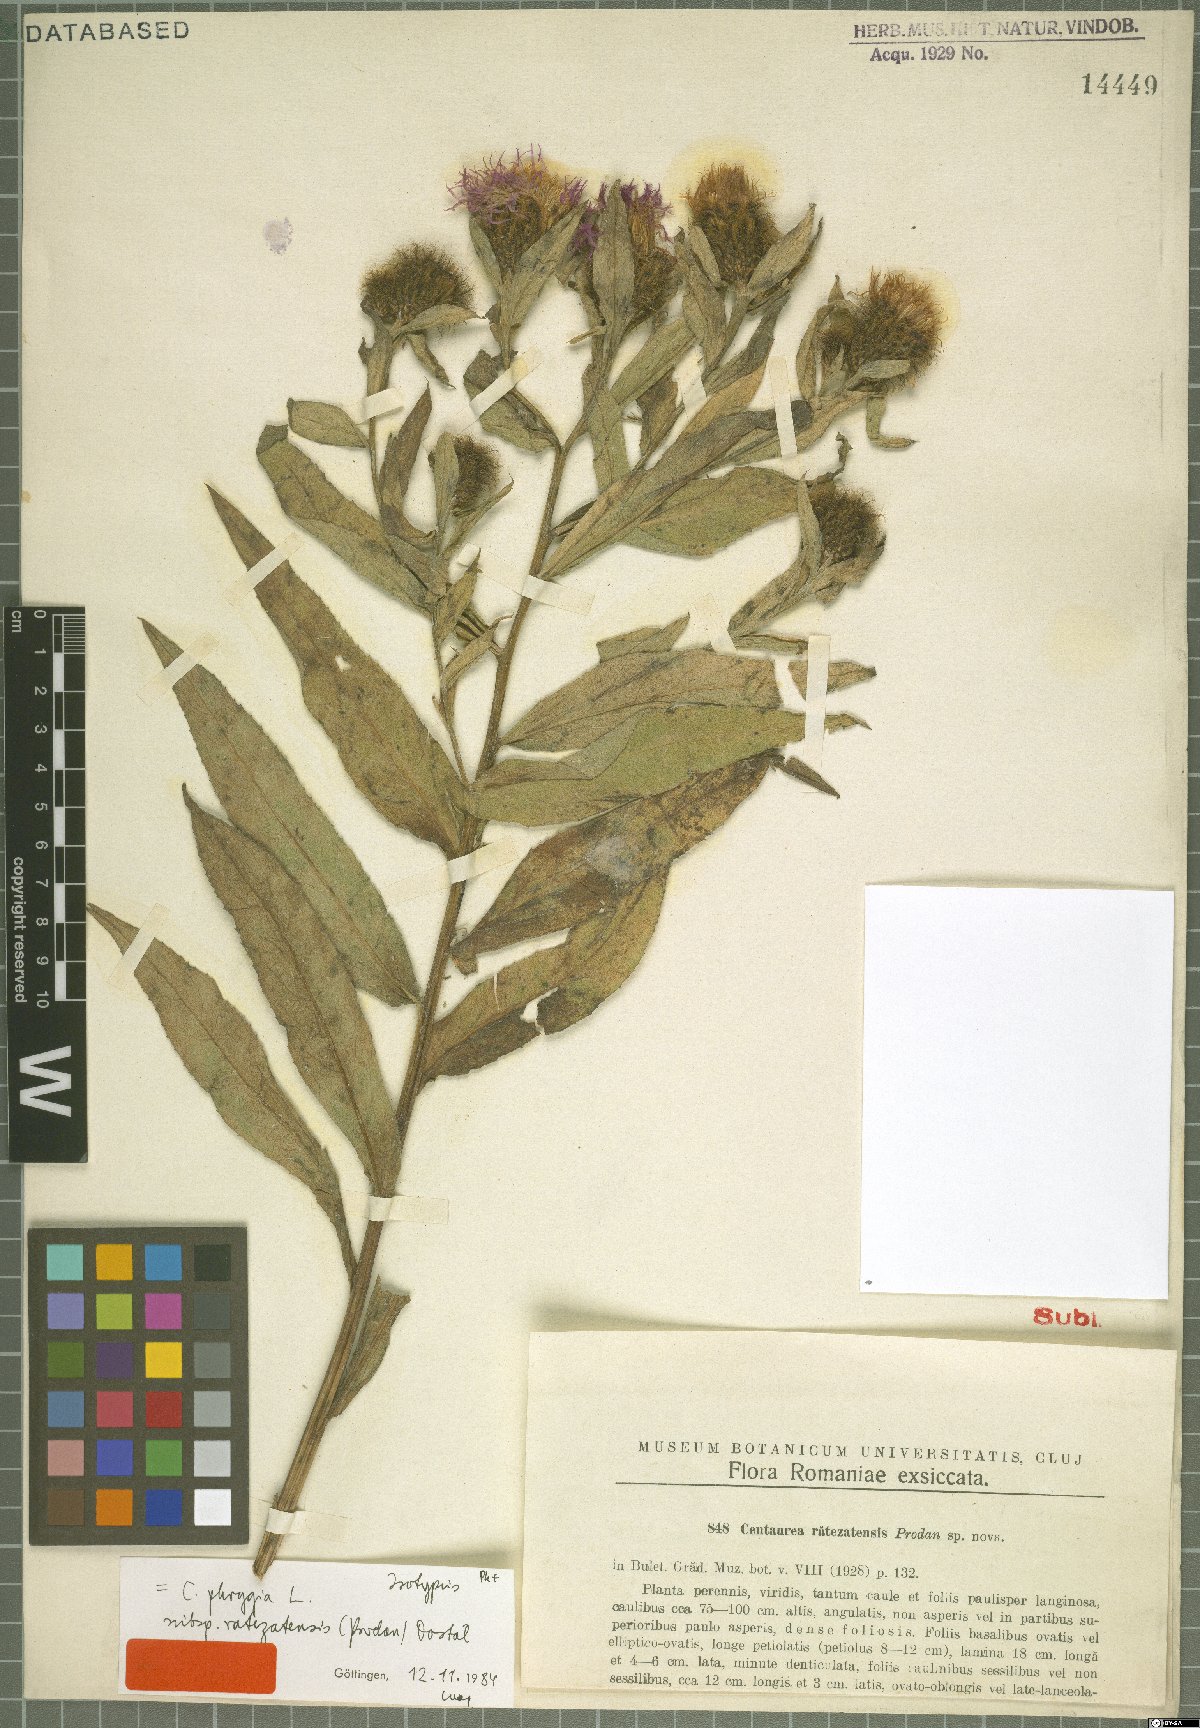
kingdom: Plantae
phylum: Tracheophyta
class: Magnoliopsida
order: Asterales
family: Asteraceae
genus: Centaurea
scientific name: Centaurea phrygia
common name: Wig knapweed
